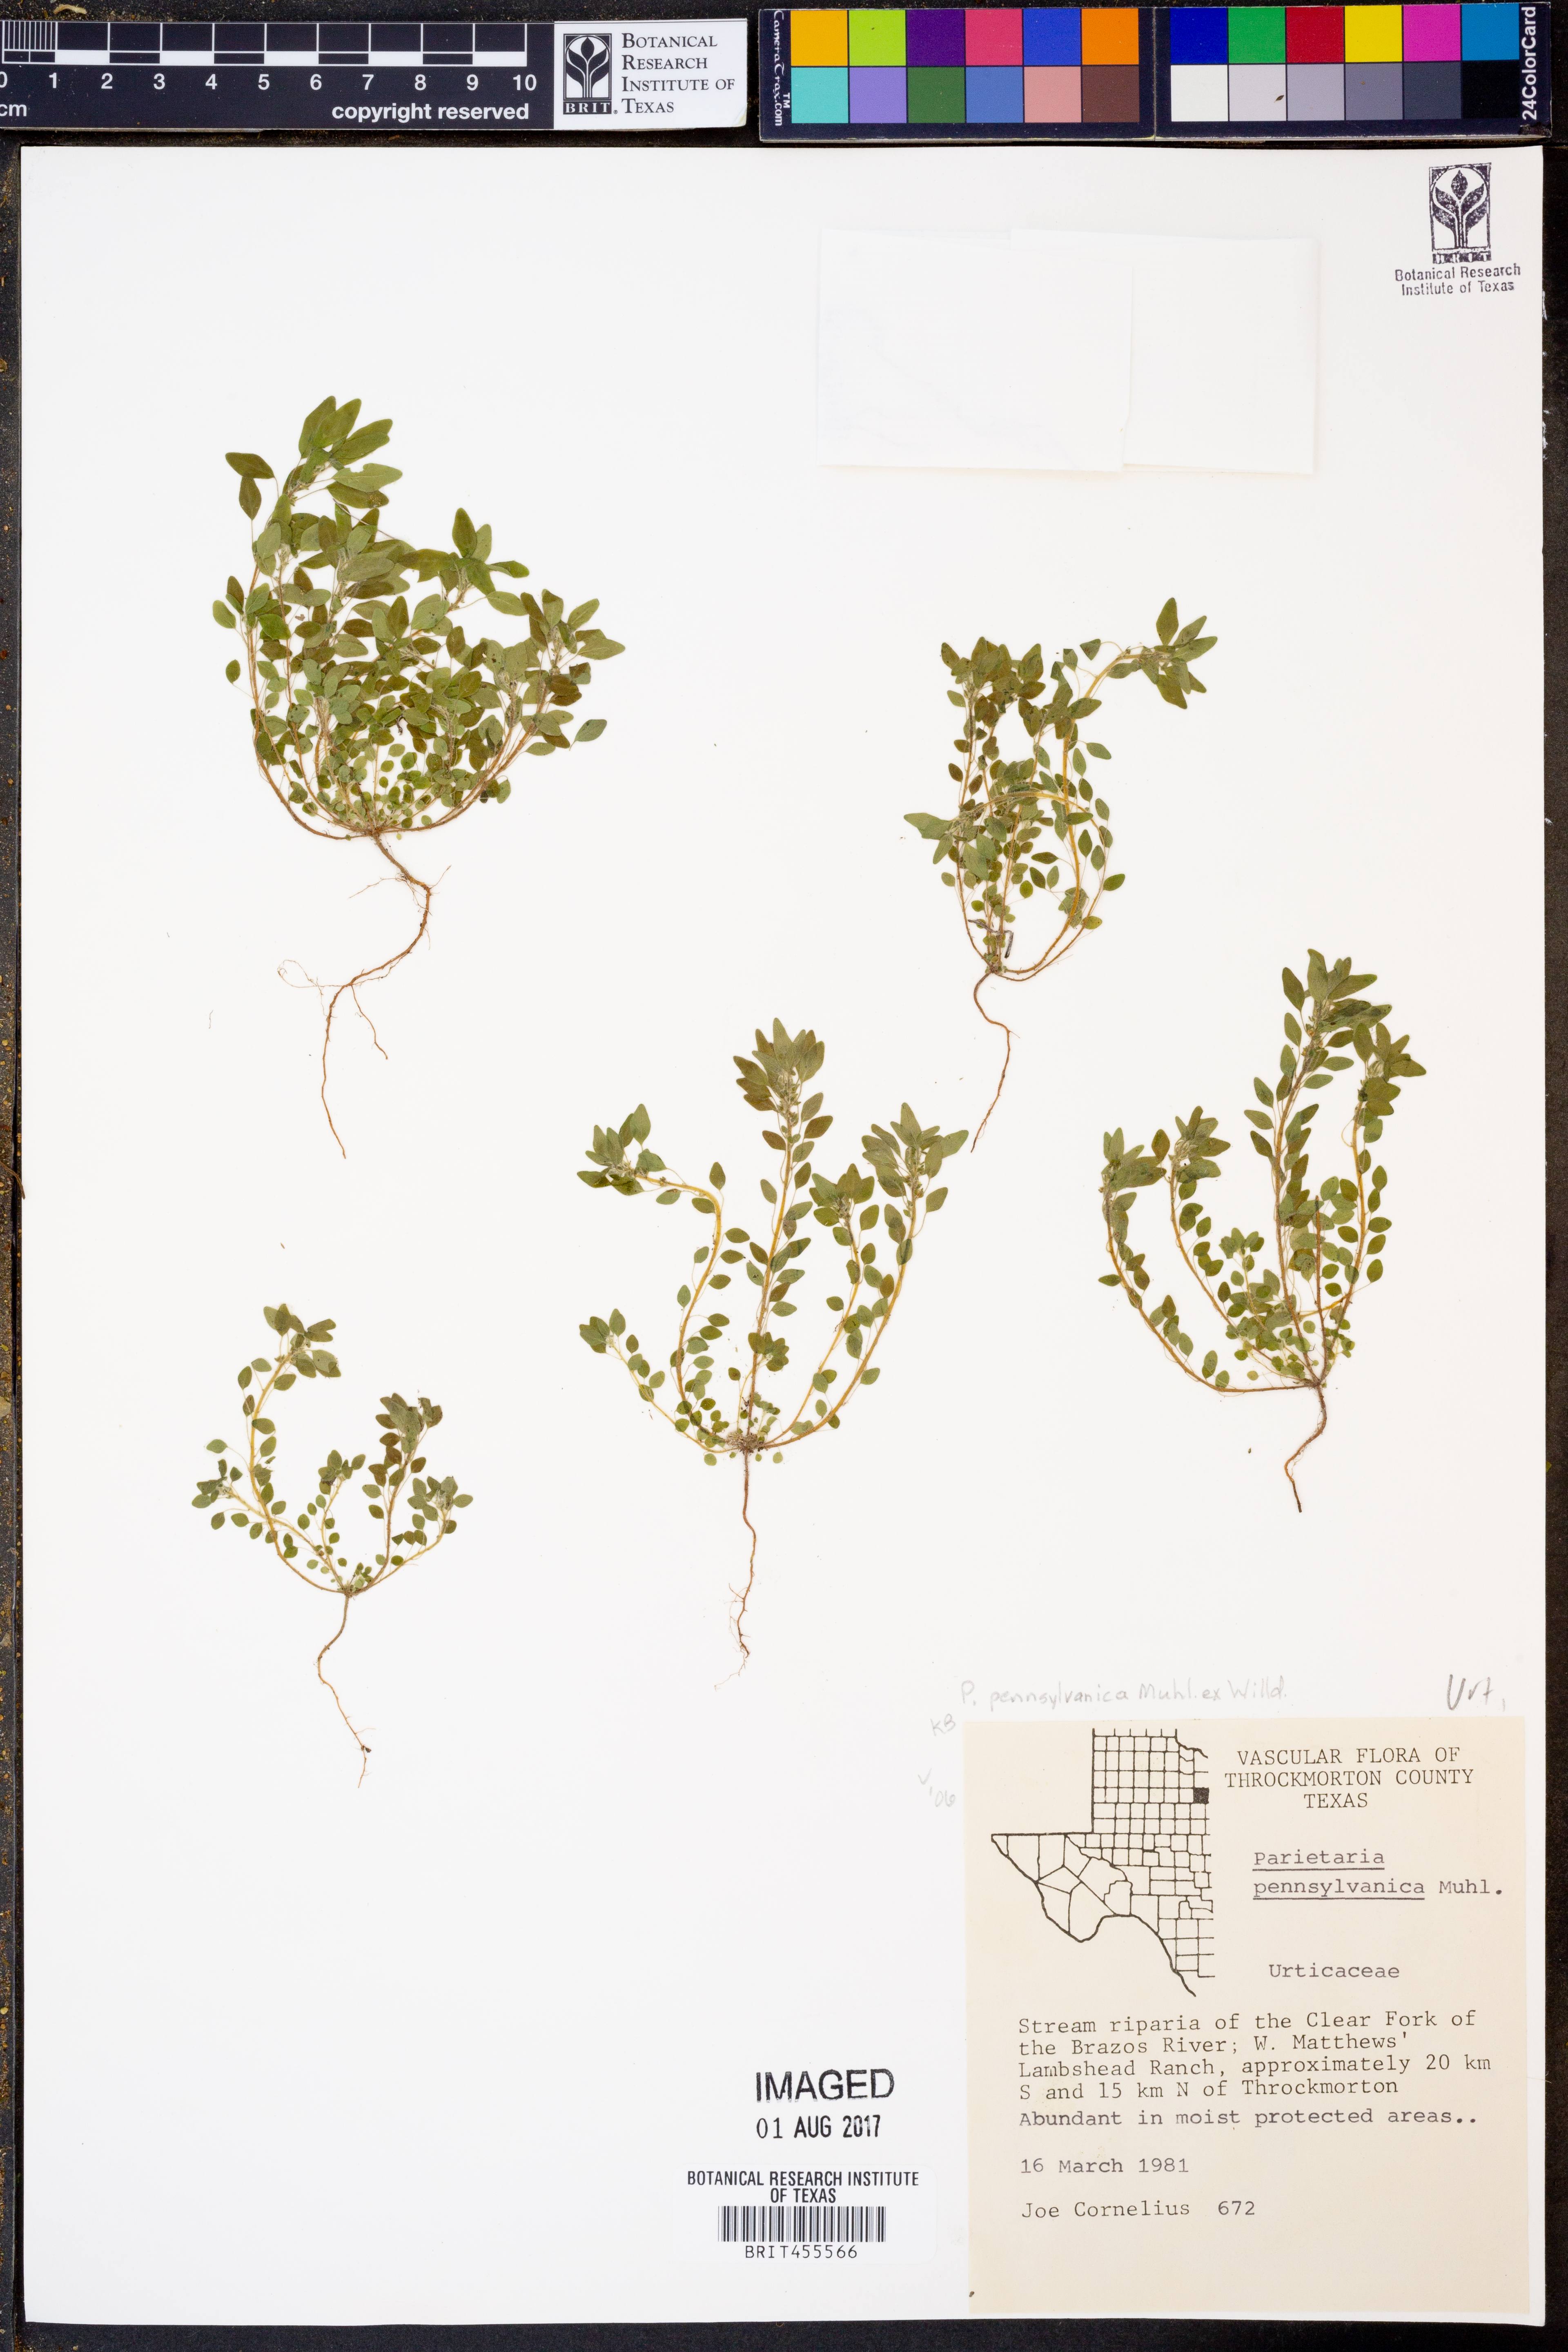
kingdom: Plantae
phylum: Tracheophyta
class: Magnoliopsida
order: Rosales
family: Urticaceae
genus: Parietaria
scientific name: Parietaria pensylvanica
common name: Pennsylvania pellitory
